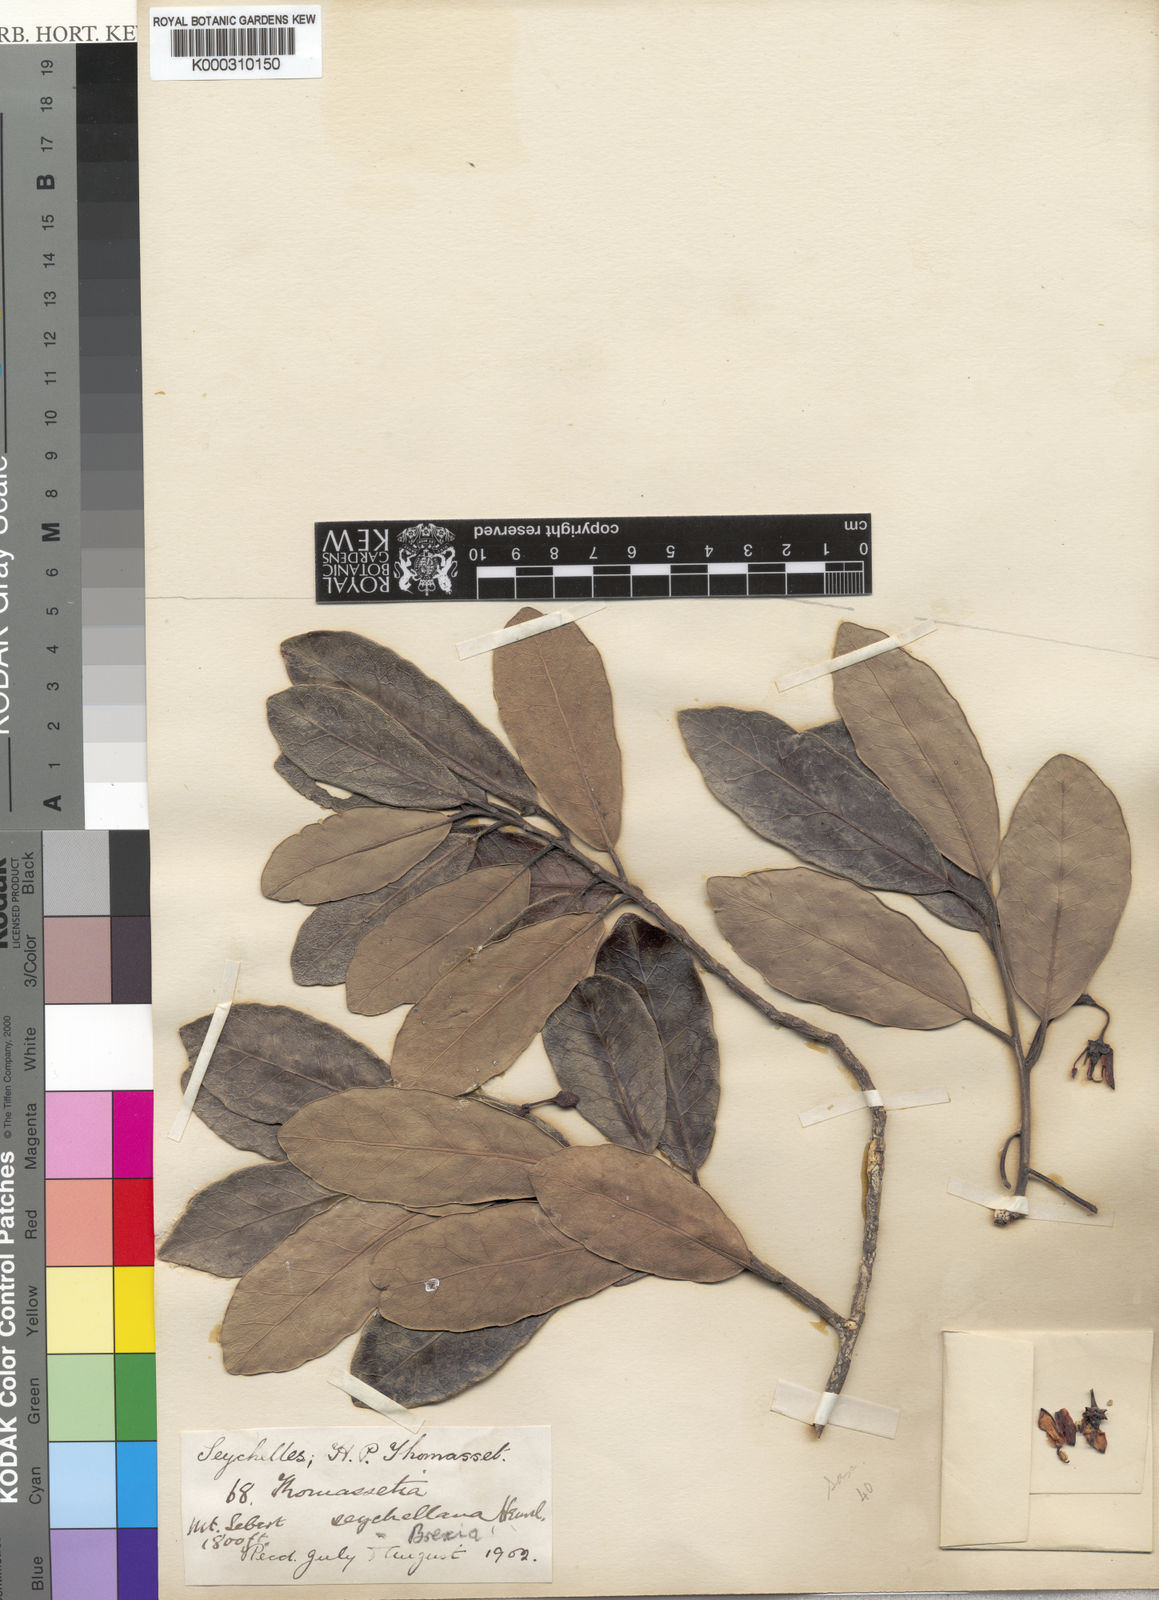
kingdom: Plantae
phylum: Tracheophyta
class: Magnoliopsida
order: Celastrales
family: Celastraceae
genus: Brexia
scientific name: Brexia madagascariensis
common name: Brexia
